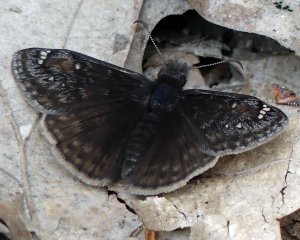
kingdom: Animalia
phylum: Arthropoda
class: Insecta
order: Lepidoptera
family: Hesperiidae
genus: Gesta
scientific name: Gesta
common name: Juvenal's Duskywing
